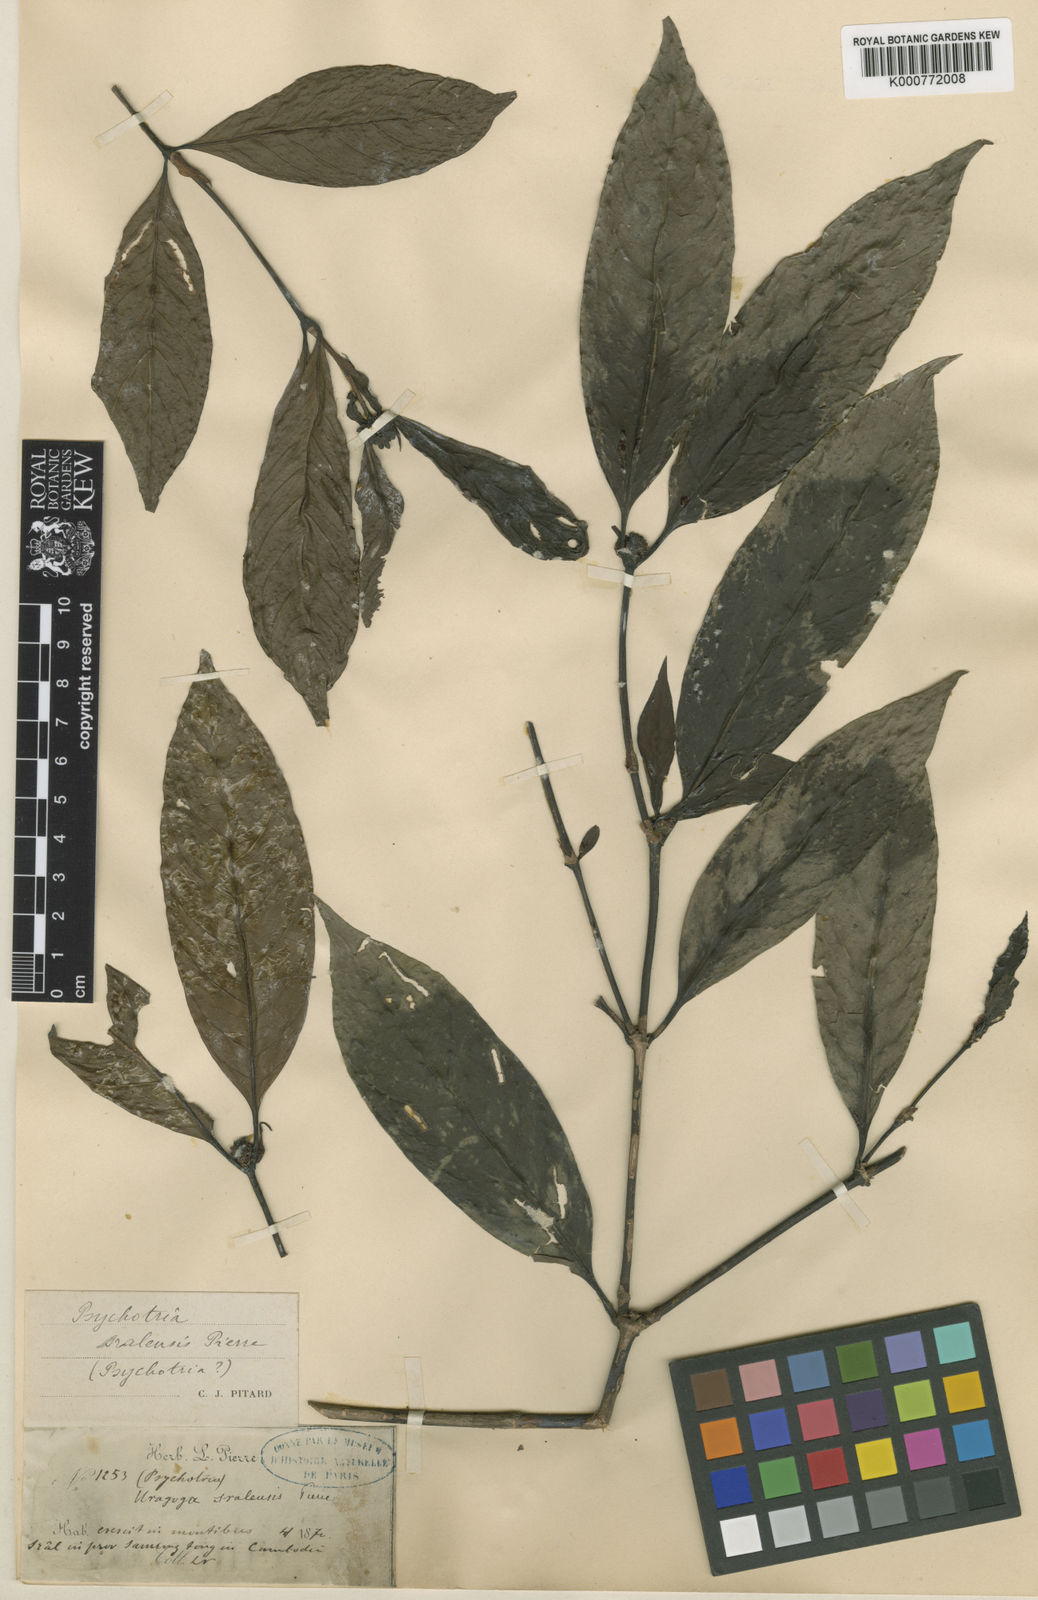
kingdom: Plantae
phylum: Tracheophyta
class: Magnoliopsida
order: Gentianales
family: Rubiaceae
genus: Gaertnera
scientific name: Gaertnera sralensis
